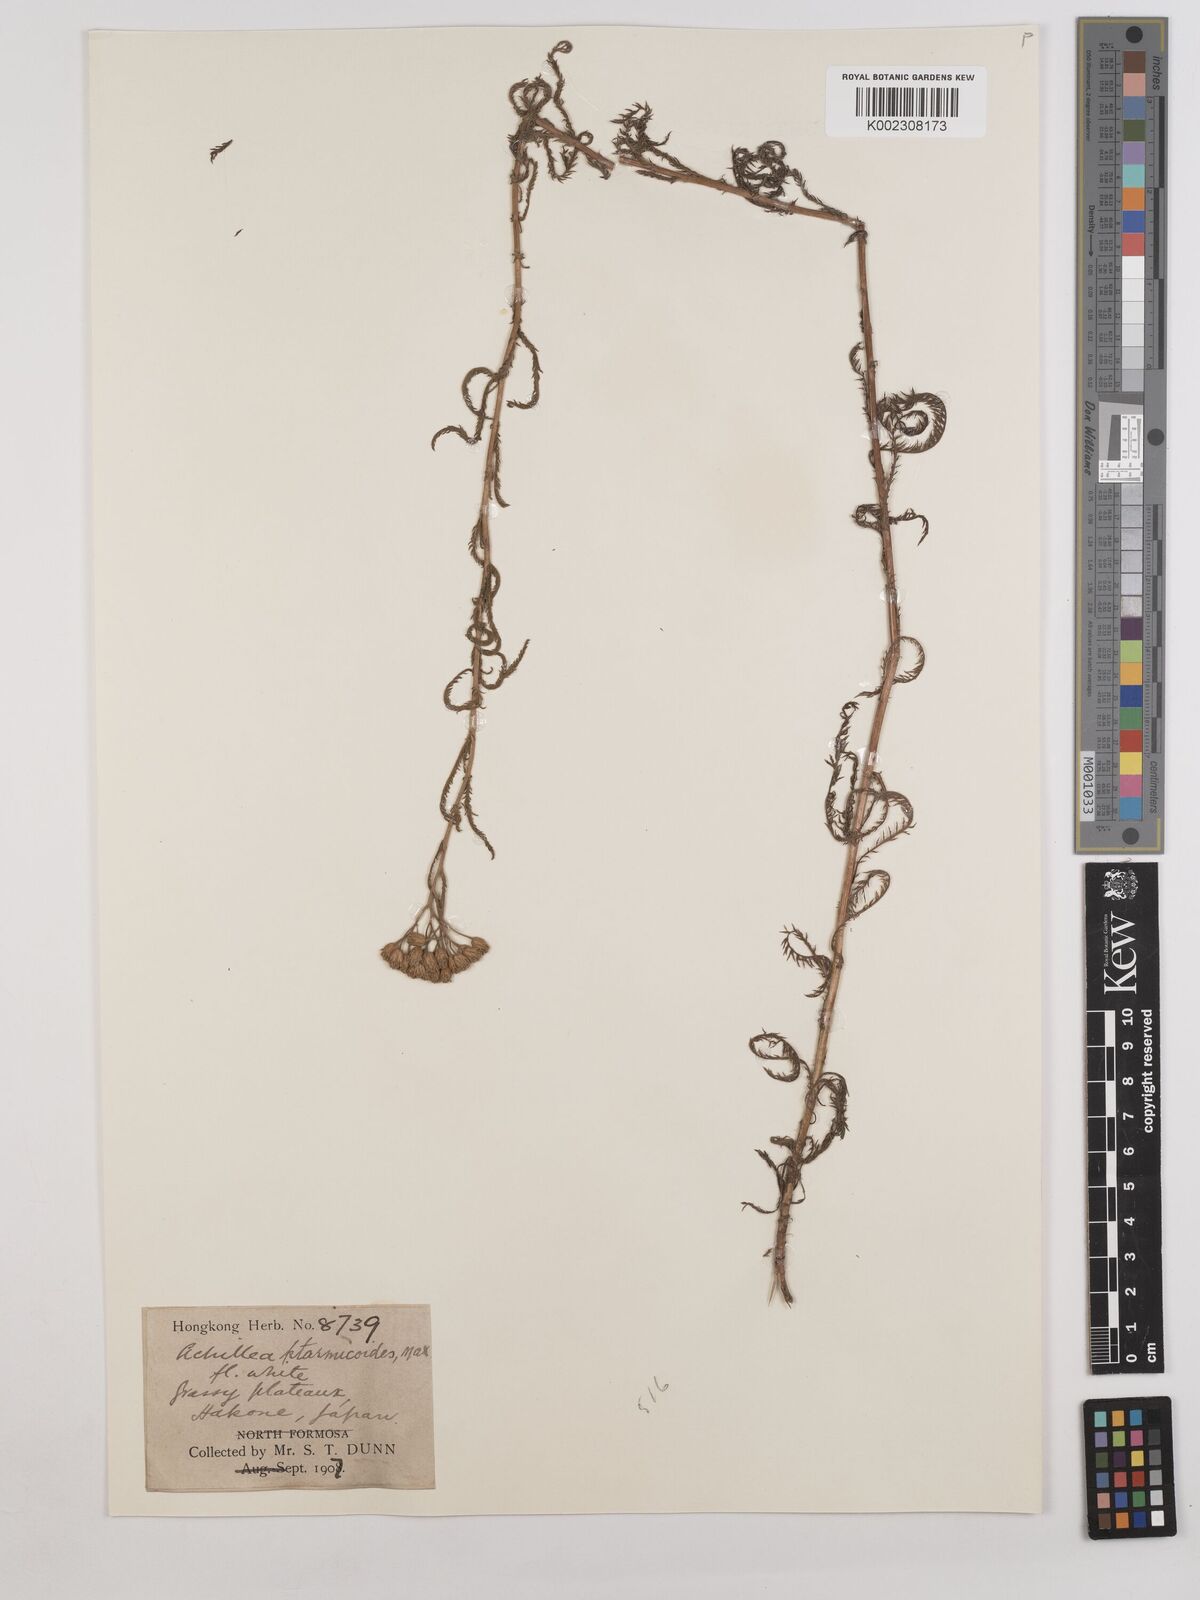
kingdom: Plantae
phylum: Tracheophyta
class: Magnoliopsida
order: Asterales
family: Asteraceae
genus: Achillea
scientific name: Achillea ptarmicoides
